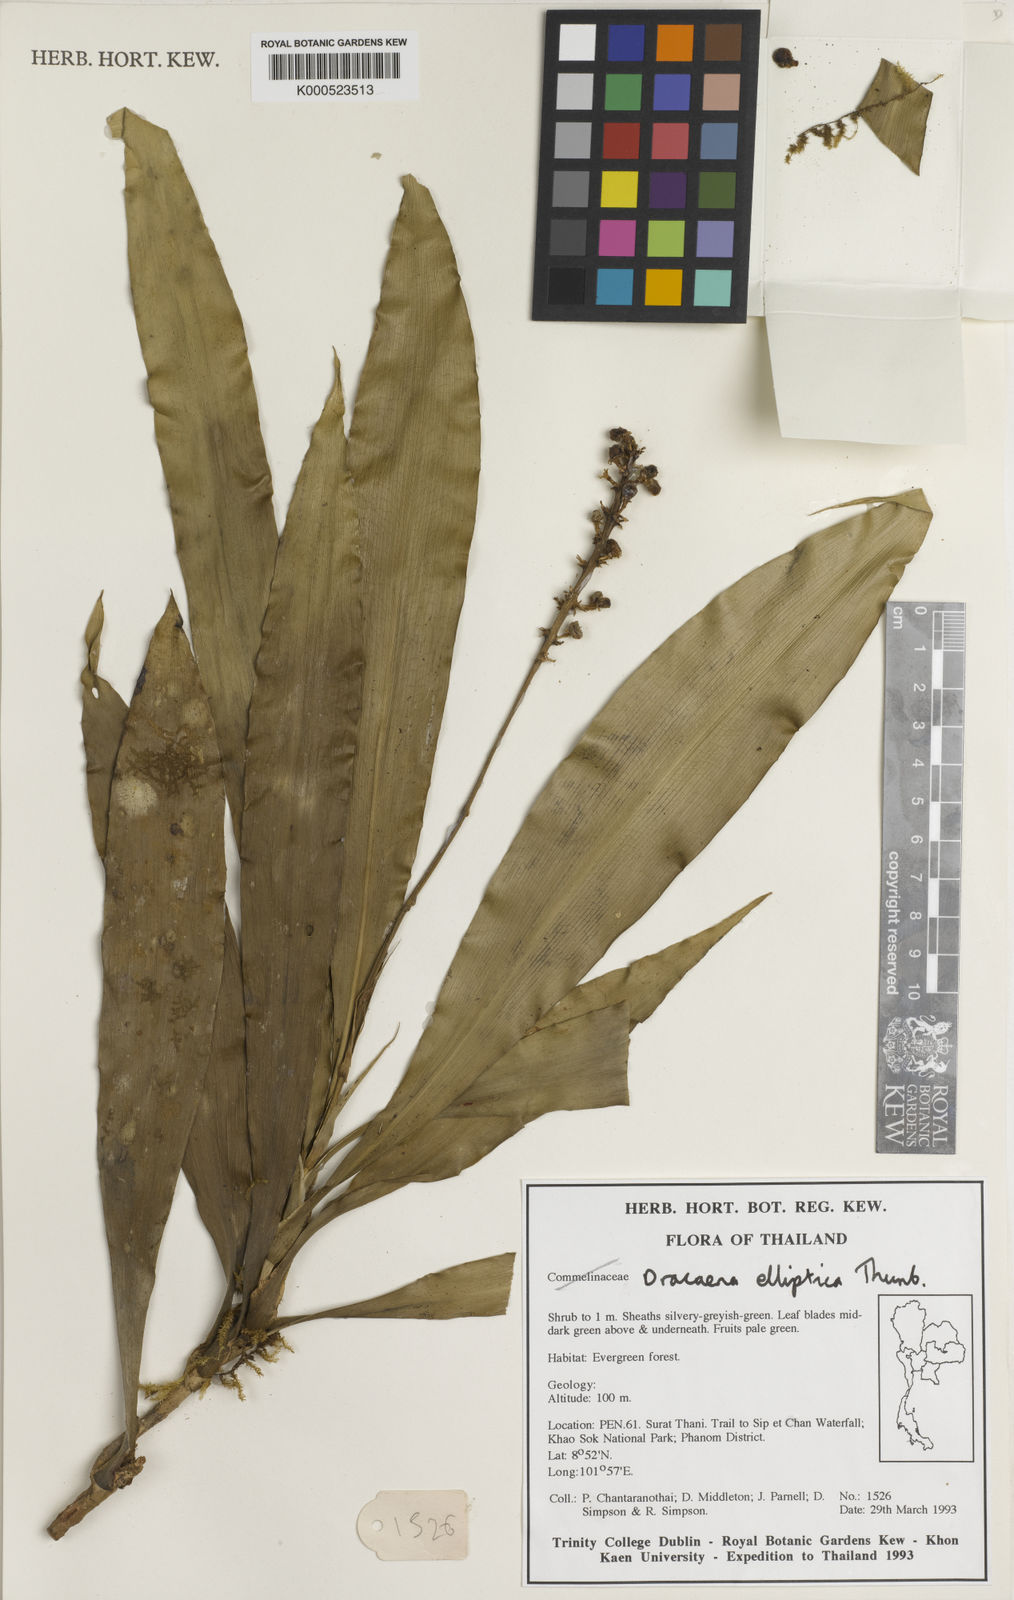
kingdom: Plantae
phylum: Tracheophyta
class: Liliopsida
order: Asparagales
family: Asparagaceae
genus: Dracaena
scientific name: Dracaena elliptica
